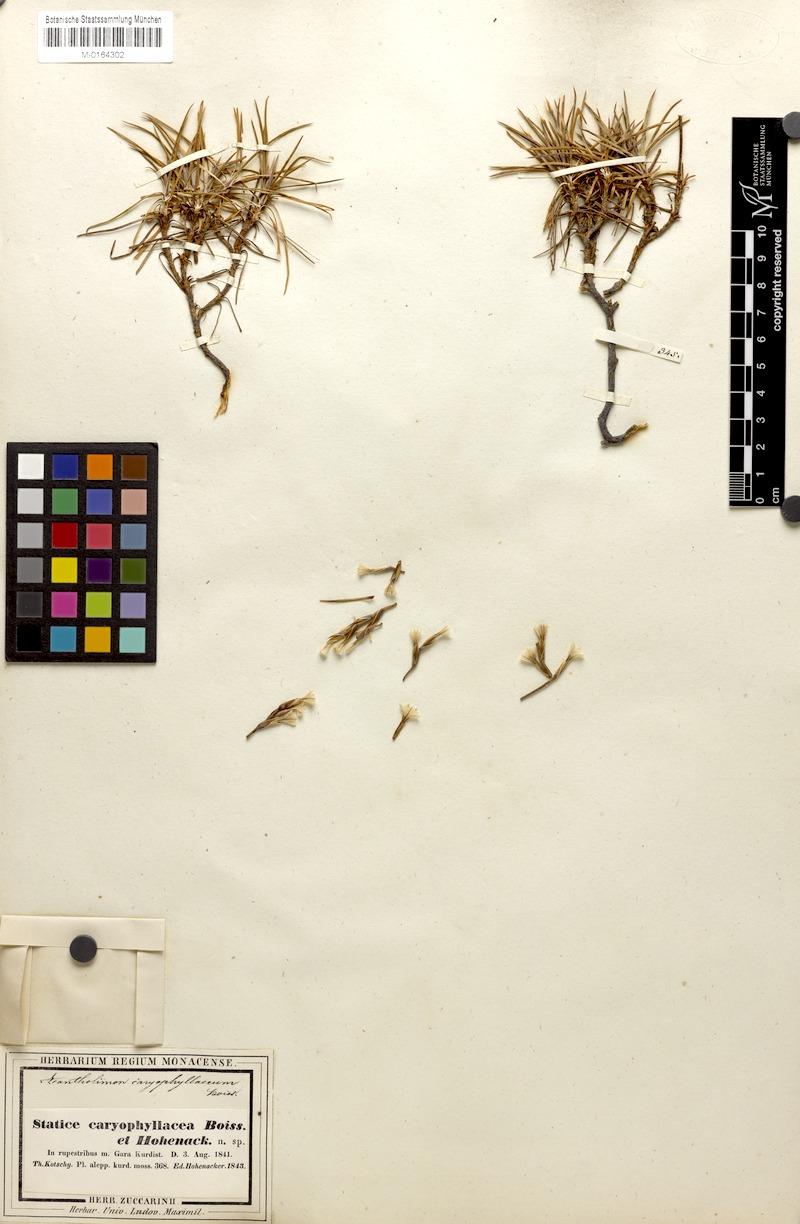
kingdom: Plantae
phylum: Tracheophyta
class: Magnoliopsida
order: Caryophyllales
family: Plumbaginaceae
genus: Acantholimon
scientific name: Acantholimon caryophyllaceum
